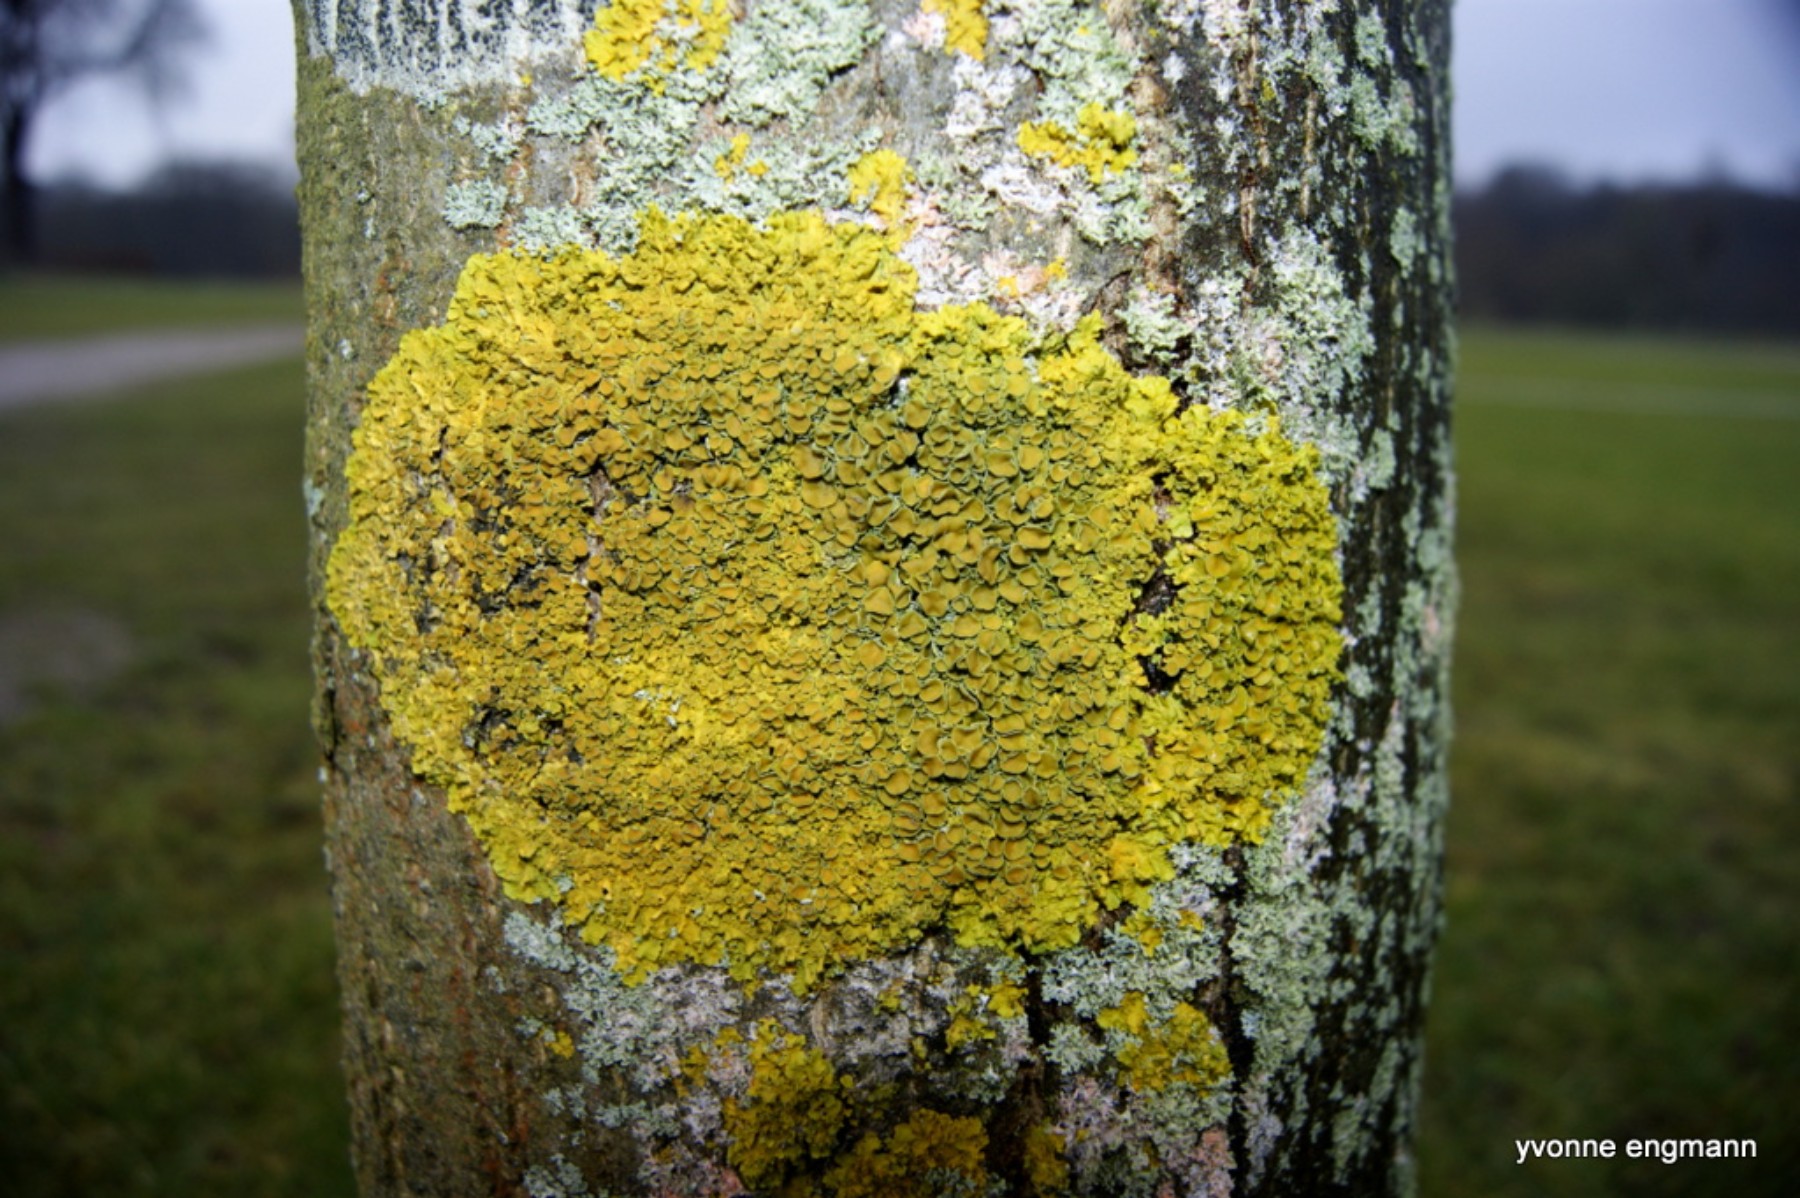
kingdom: Fungi
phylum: Ascomycota
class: Lecanoromycetes
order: Teloschistales
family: Teloschistaceae
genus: Xanthoria
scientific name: Xanthoria parietina
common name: almindelig væggelav
